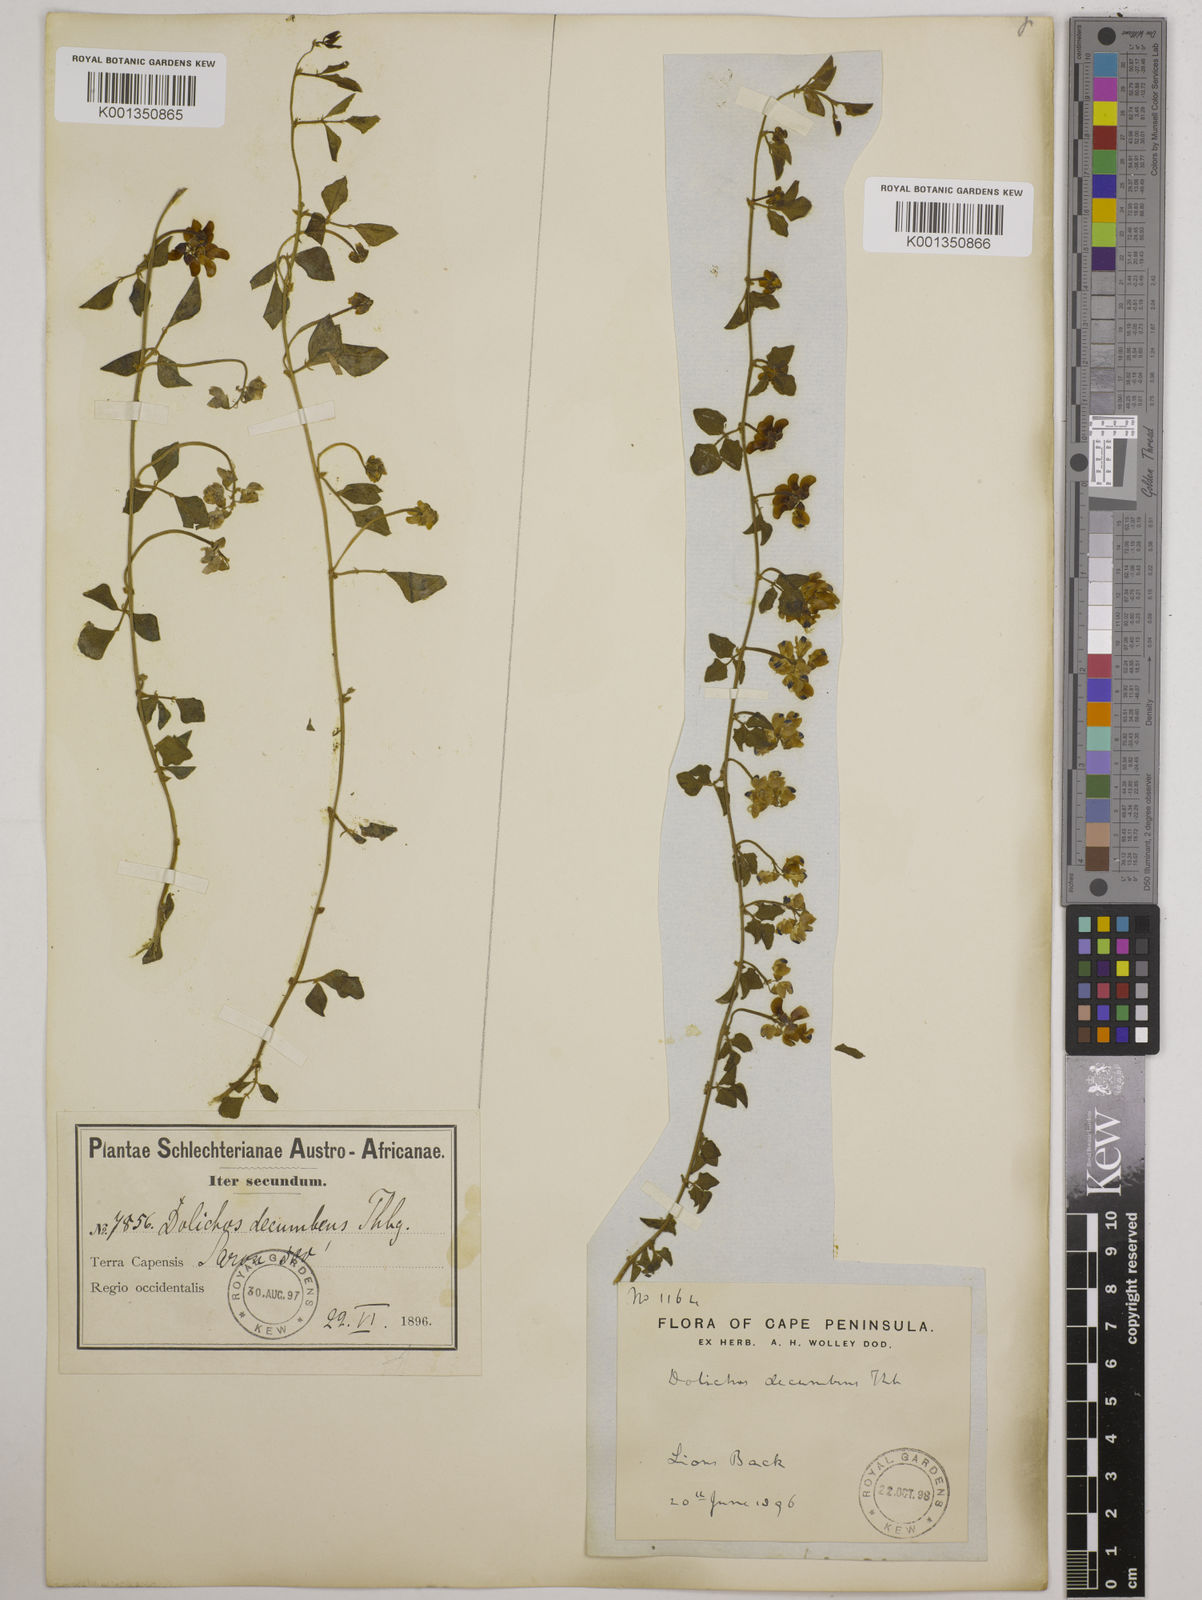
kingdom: Plantae
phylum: Tracheophyta
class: Magnoliopsida
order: Fabales
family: Fabaceae
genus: Dolichos
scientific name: Dolichos decumbens
